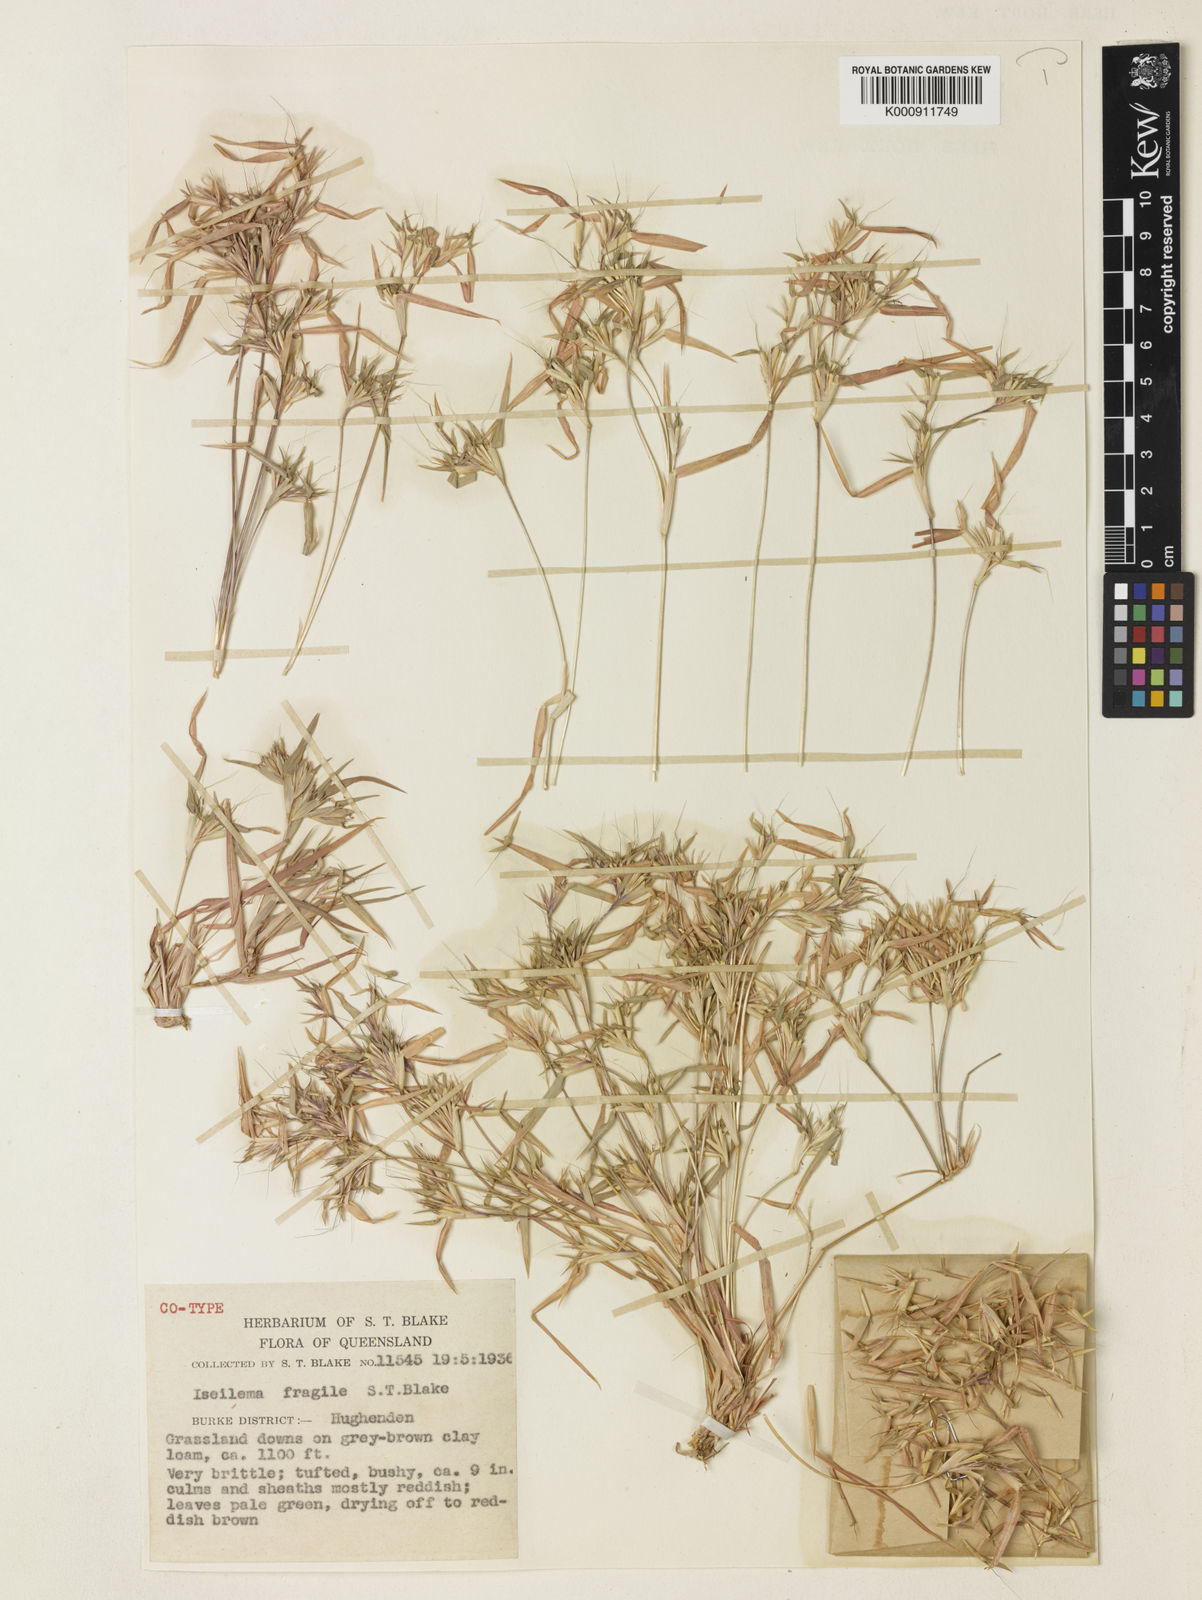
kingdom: Plantae
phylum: Tracheophyta
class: Liliopsida
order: Poales
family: Poaceae
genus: Iseilema
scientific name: Iseilema fragile
